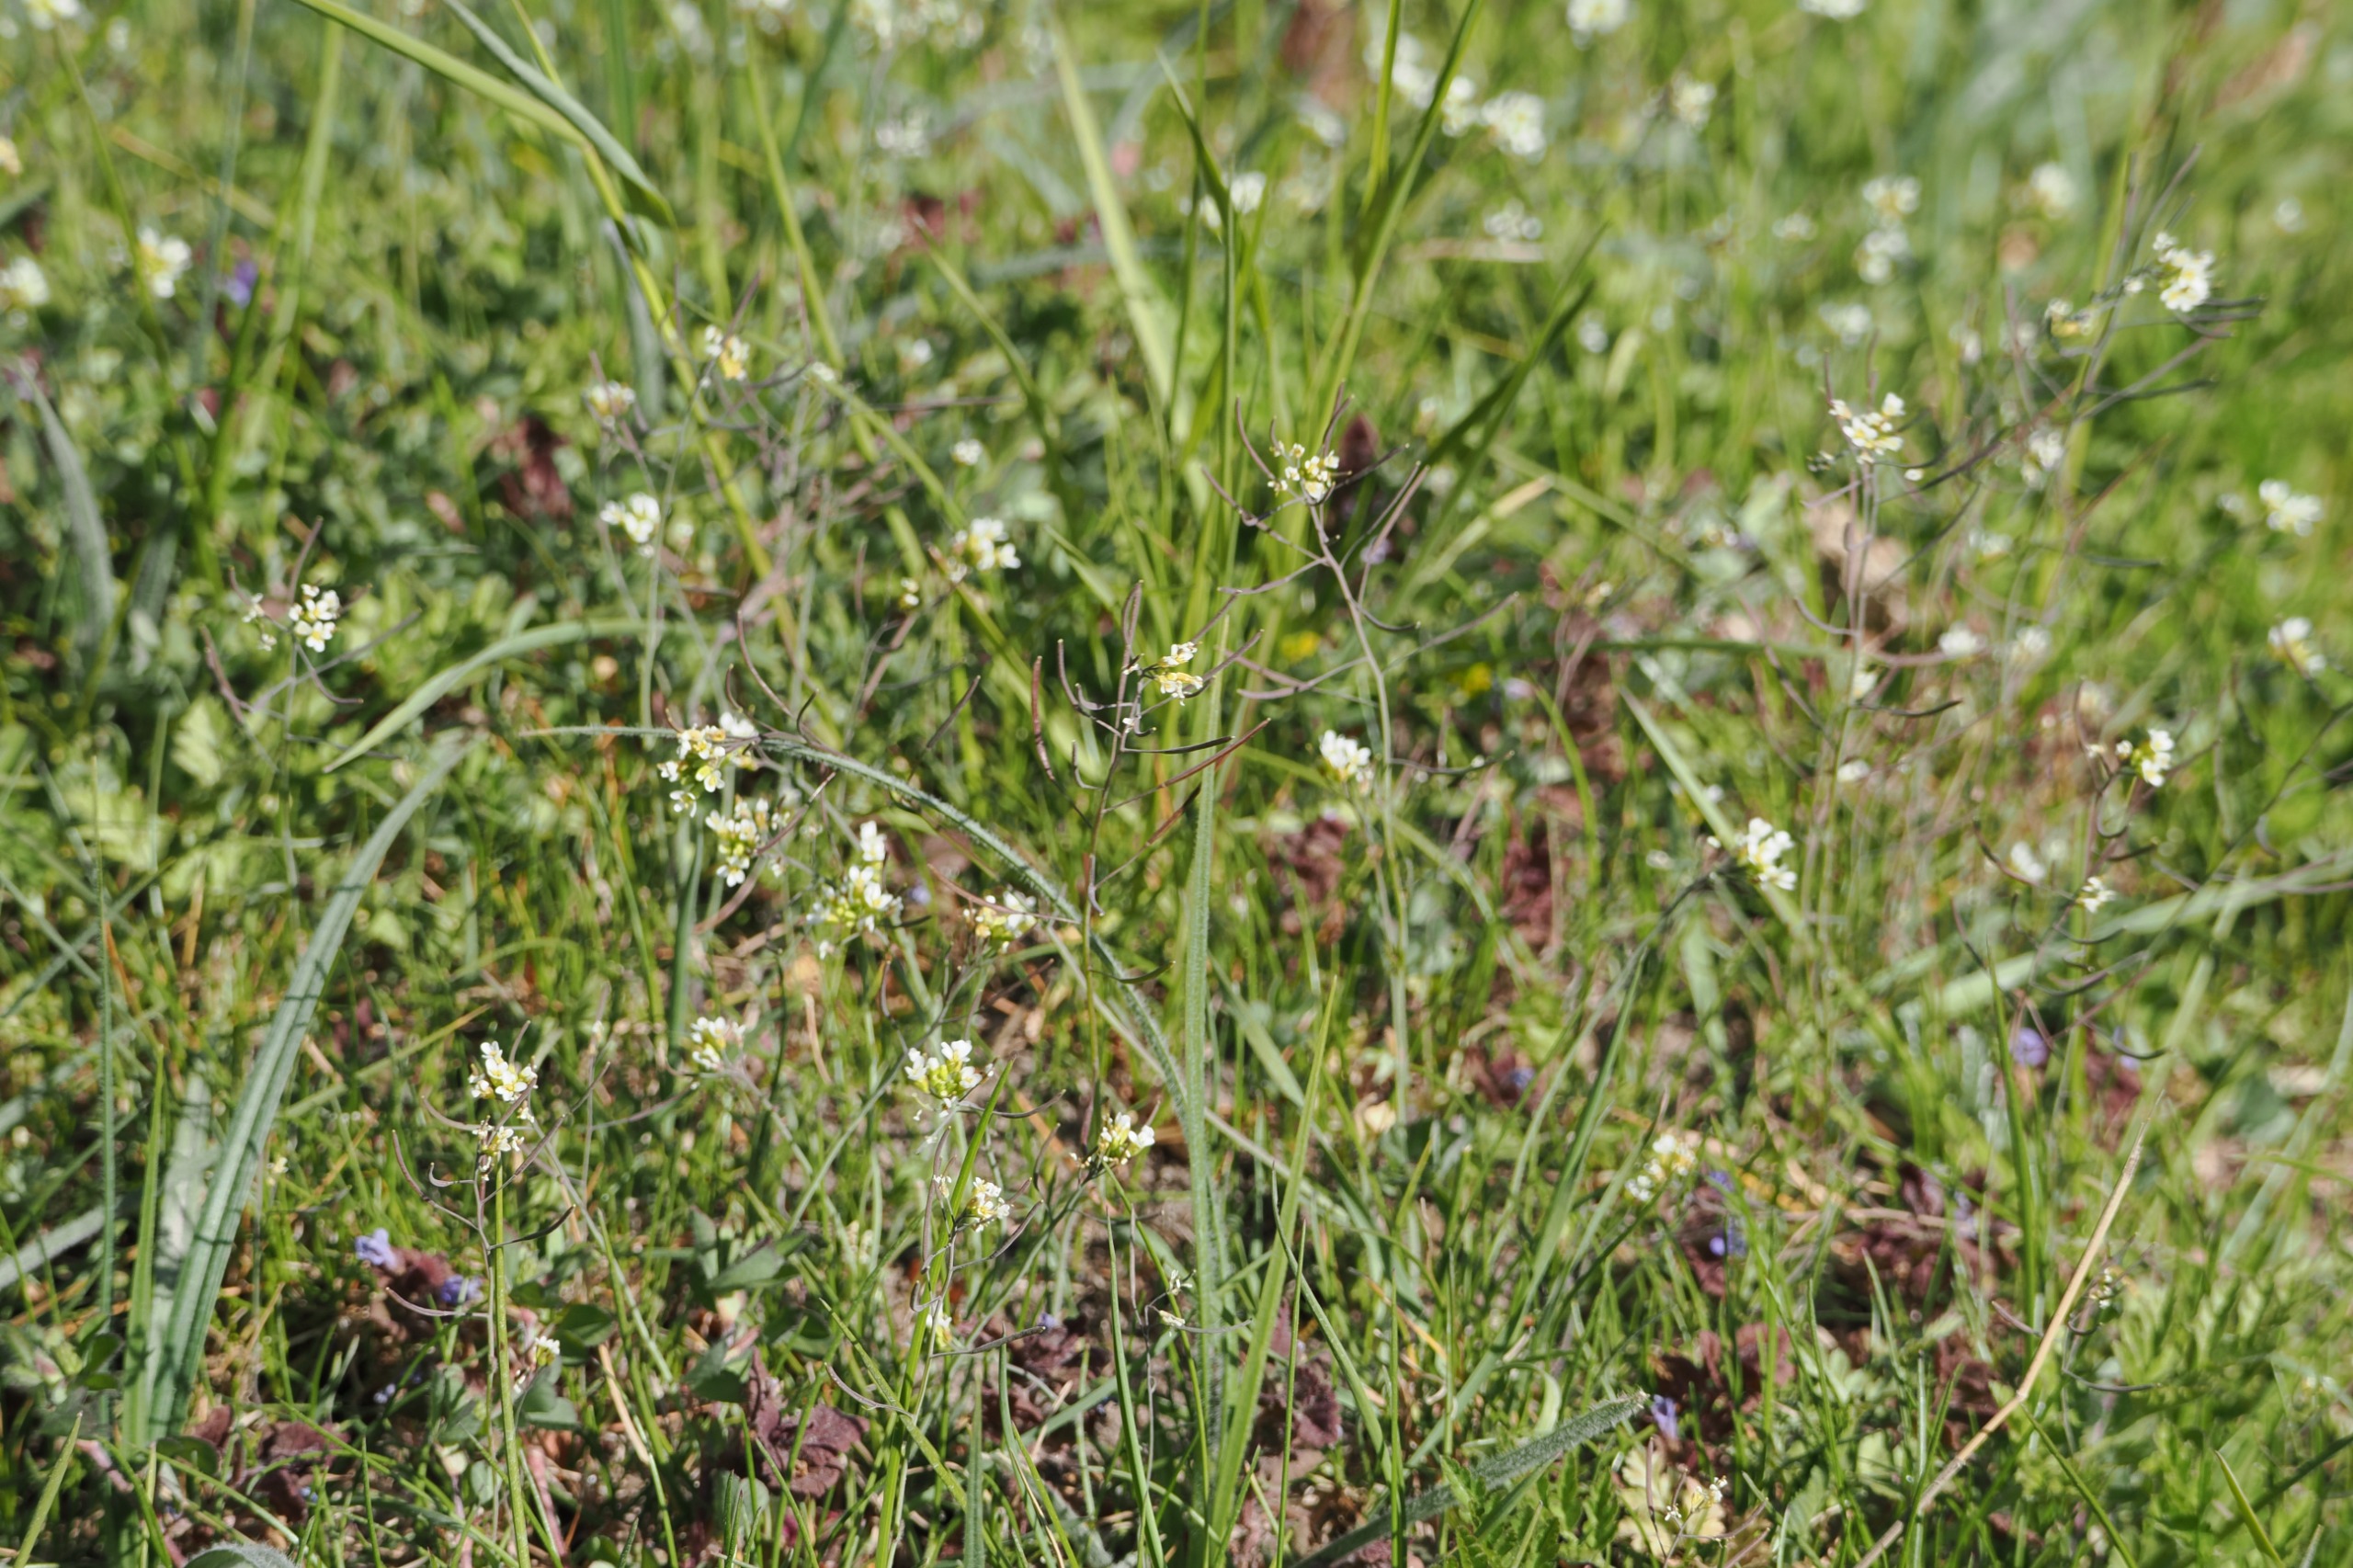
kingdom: Plantae
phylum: Tracheophyta
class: Magnoliopsida
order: Brassicales
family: Brassicaceae
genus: Arabidopsis
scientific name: Arabidopsis thaliana
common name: Almindelig gåsemad
